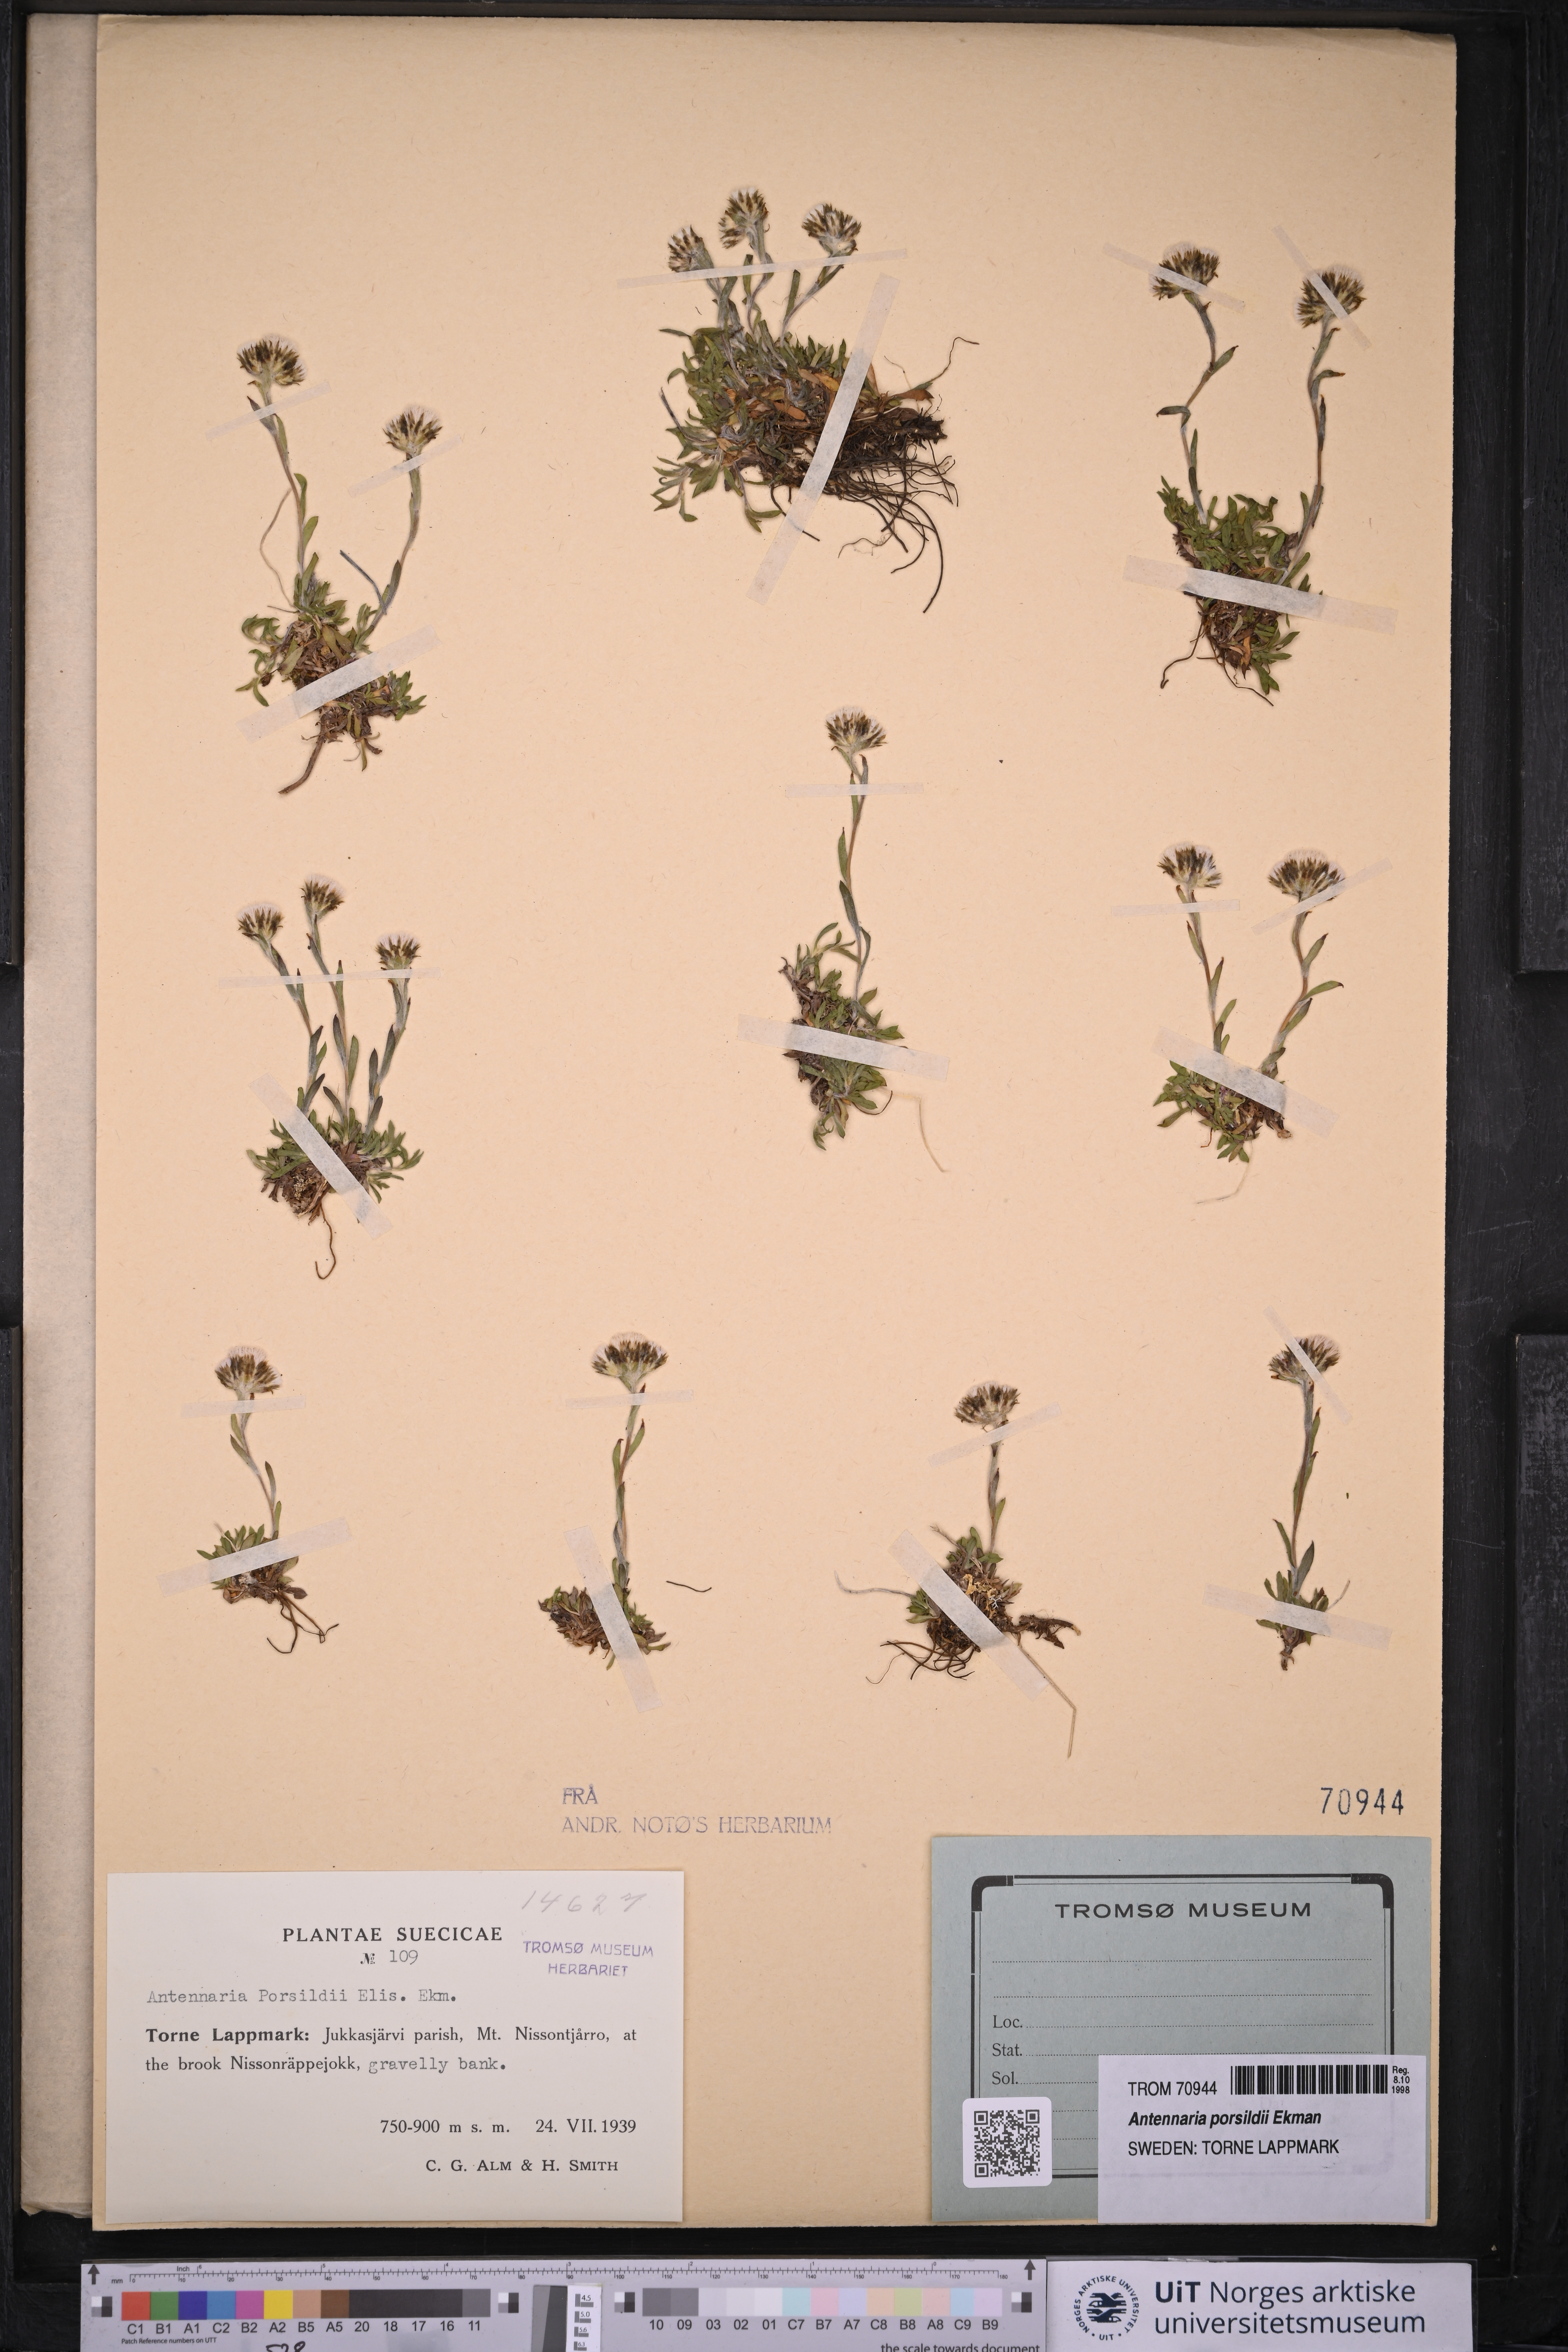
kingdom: Plantae
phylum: Tracheophyta
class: Magnoliopsida
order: Asterales
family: Asteraceae
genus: Antennaria
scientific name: Antennaria porsildii
